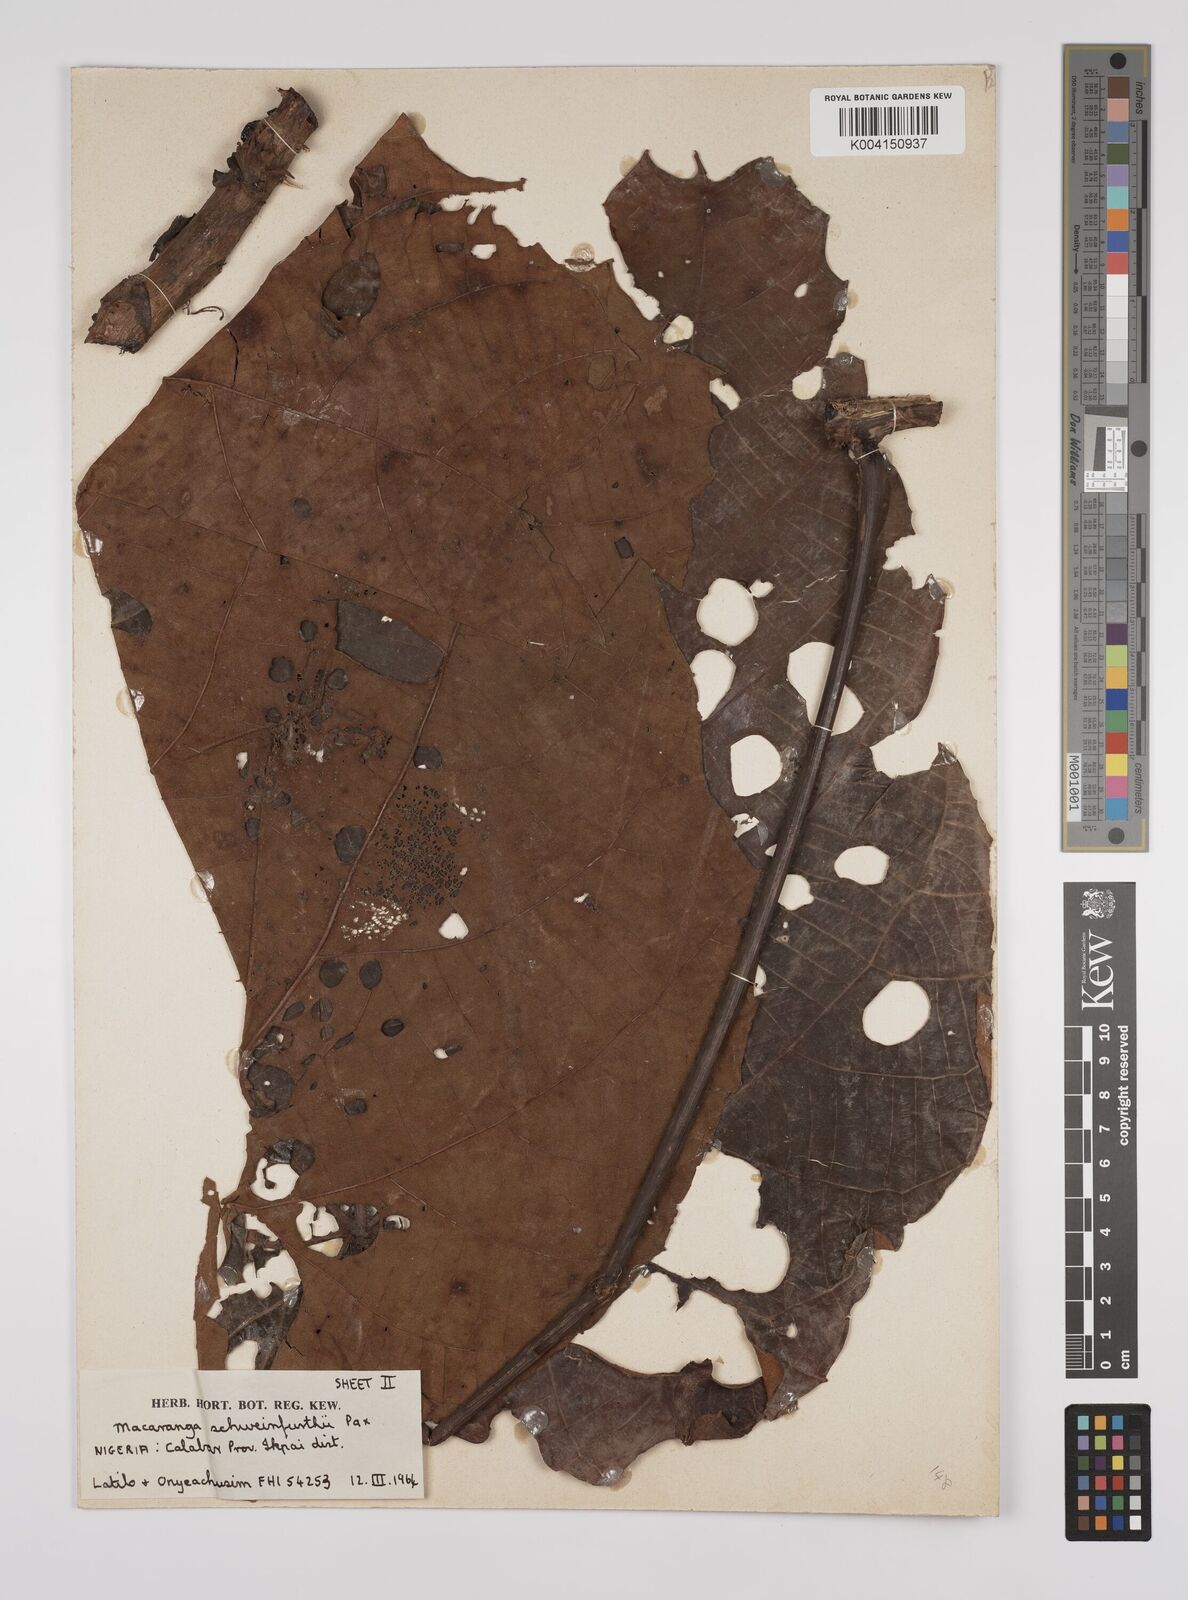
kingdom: Plantae
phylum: Tracheophyta
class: Magnoliopsida
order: Malpighiales
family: Euphorbiaceae
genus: Macaranga
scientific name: Macaranga schweinfurthii
